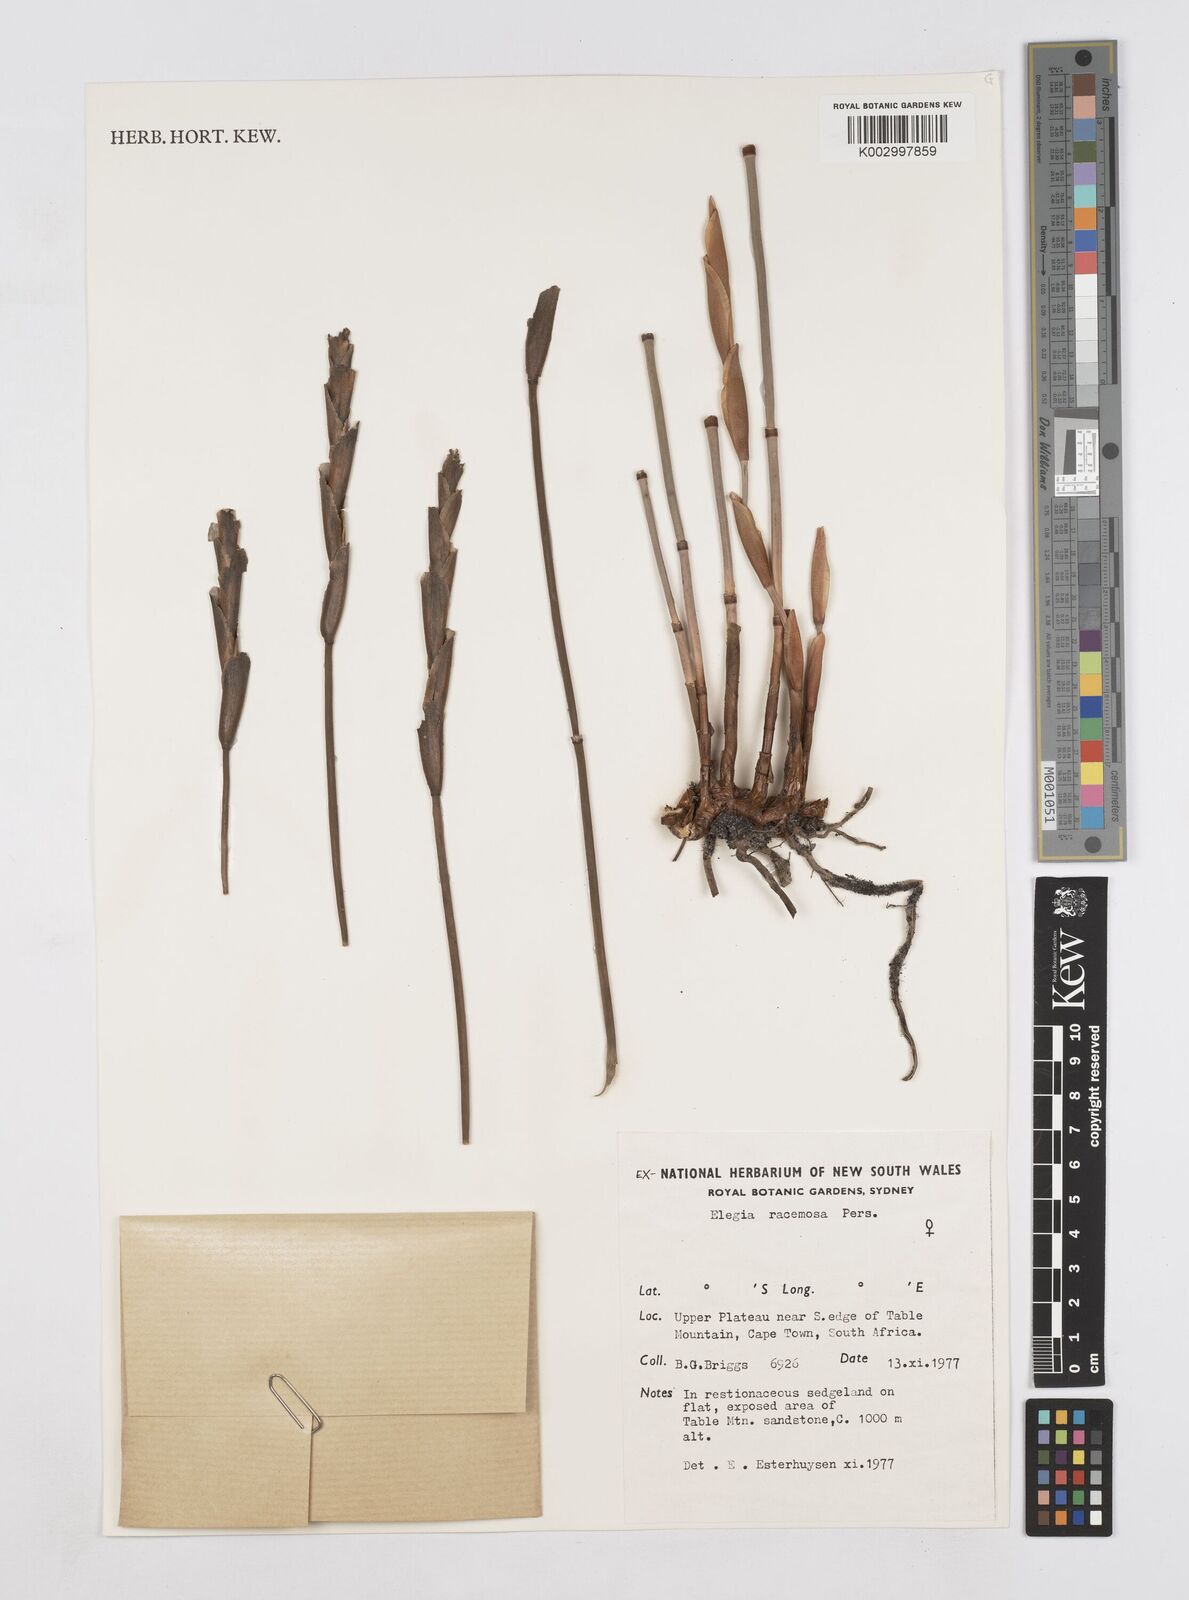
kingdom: Plantae
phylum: Tracheophyta
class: Liliopsida
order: Poales
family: Restionaceae
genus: Elegia
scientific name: Elegia racemosa
